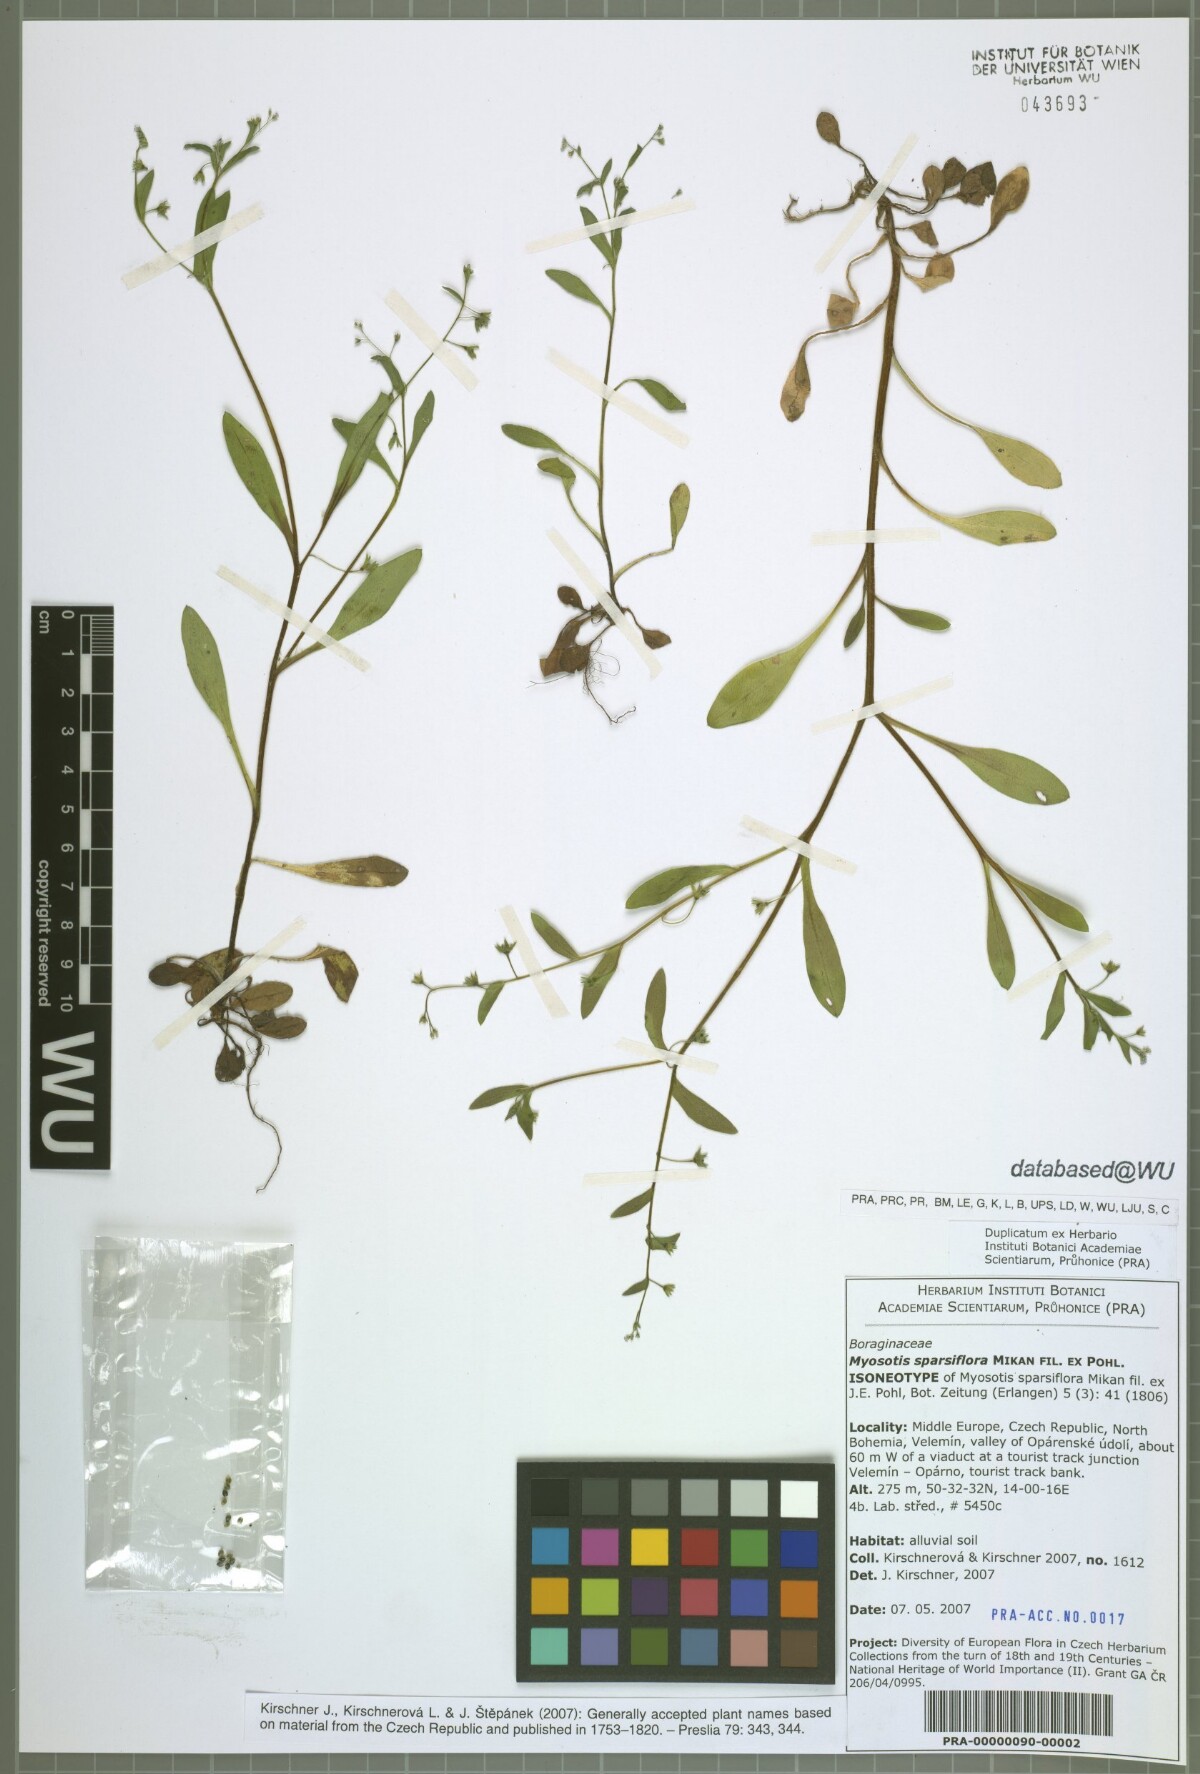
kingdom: Plantae
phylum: Tracheophyta
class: Magnoliopsida
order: Boraginales
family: Boraginaceae
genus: Myosotis
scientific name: Myosotis sparsiflora
